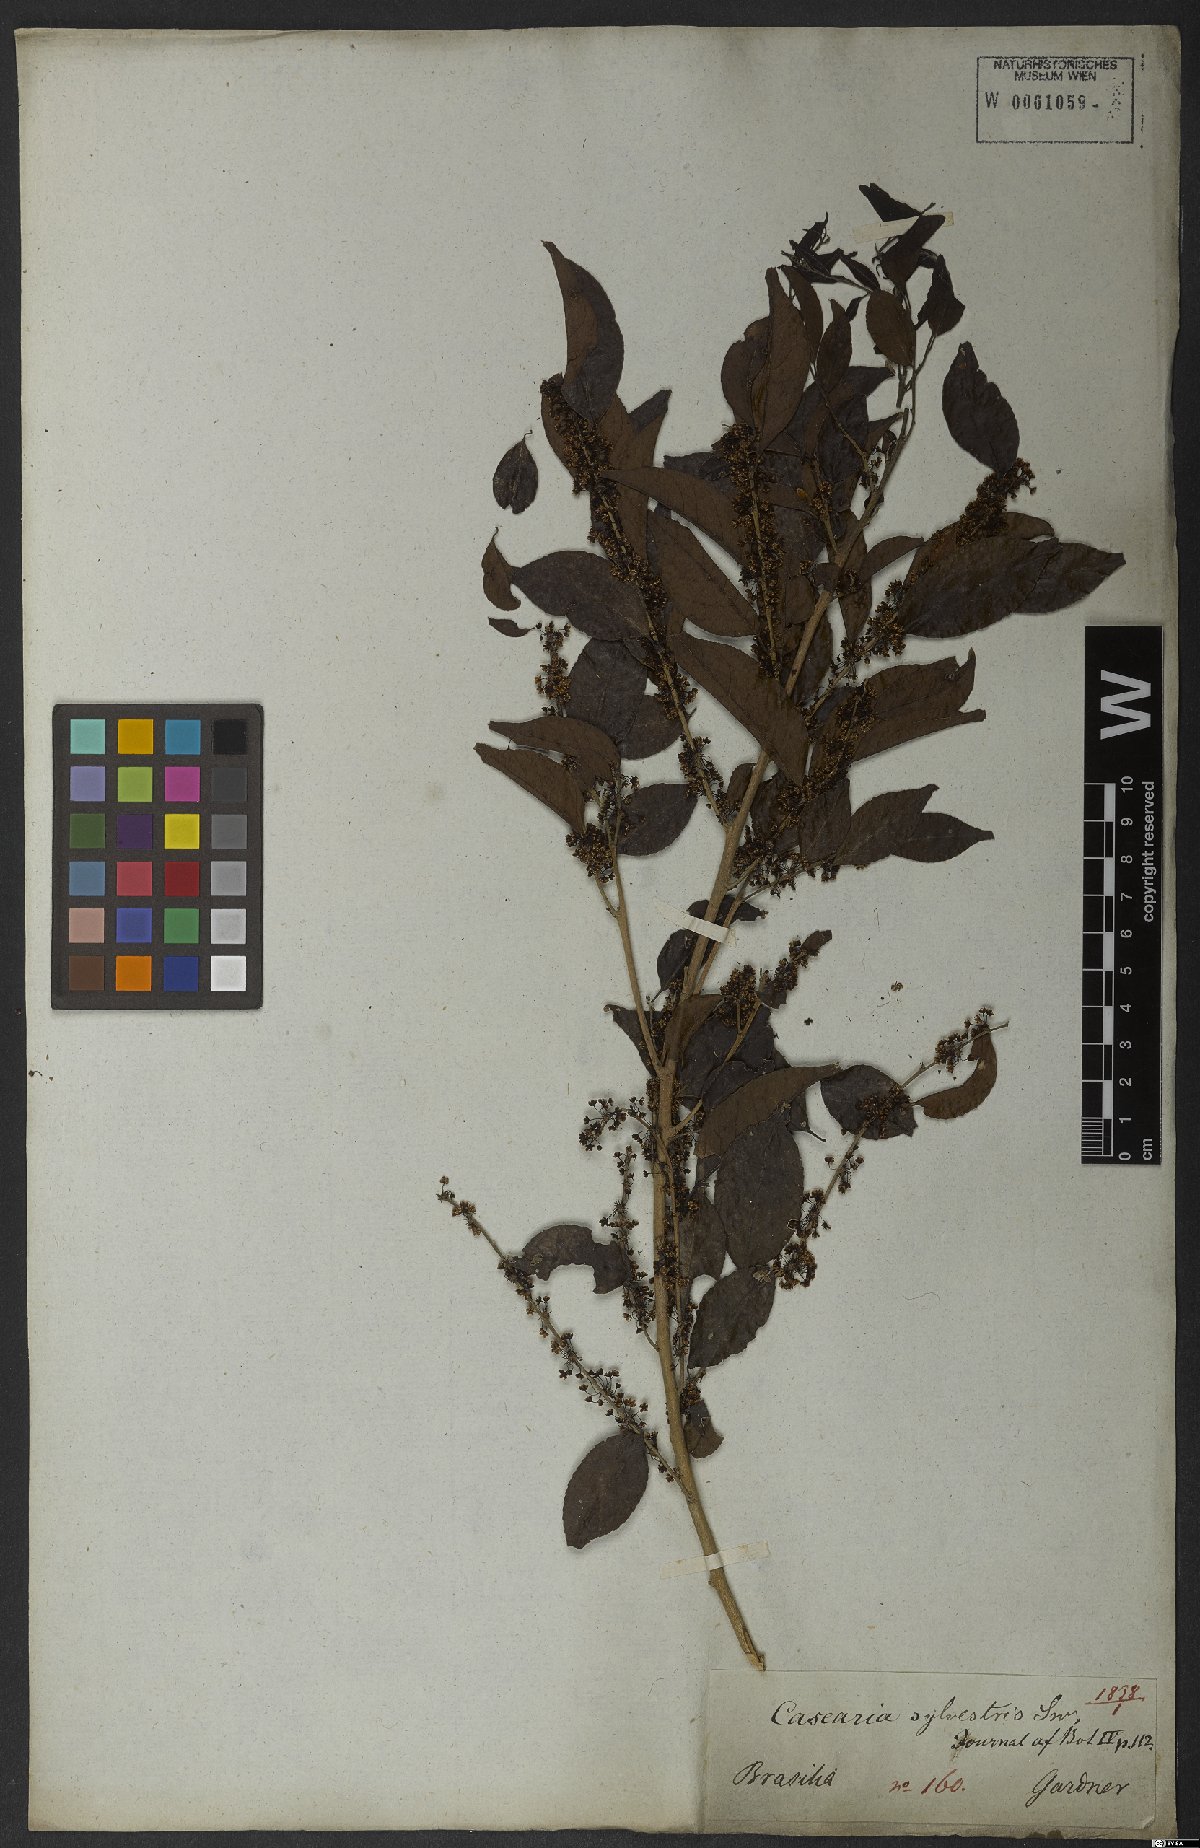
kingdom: Plantae
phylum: Tracheophyta
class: Magnoliopsida
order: Malpighiales
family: Salicaceae
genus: Casearia
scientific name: Casearia sylvestris
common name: Wild sage
